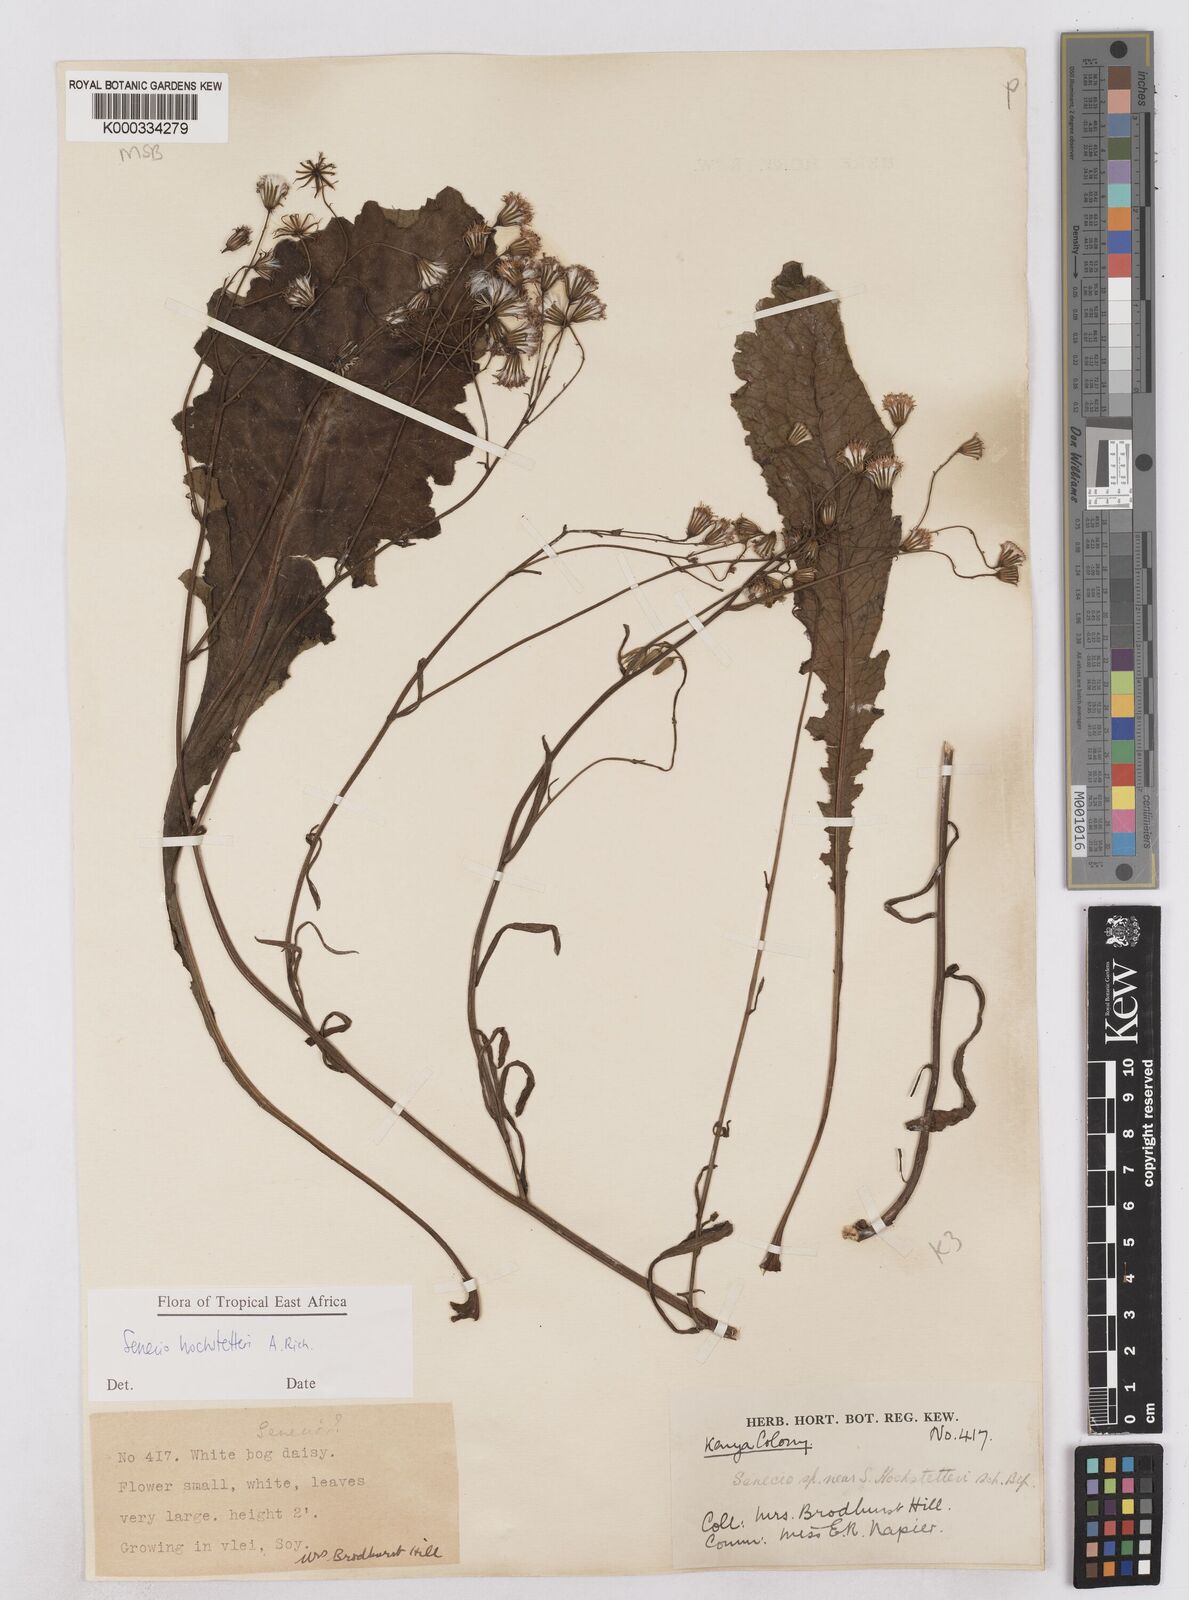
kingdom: Plantae
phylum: Tracheophyta
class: Magnoliopsida
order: Asterales
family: Asteraceae
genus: Senecio
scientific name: Senecio hochstetteri
